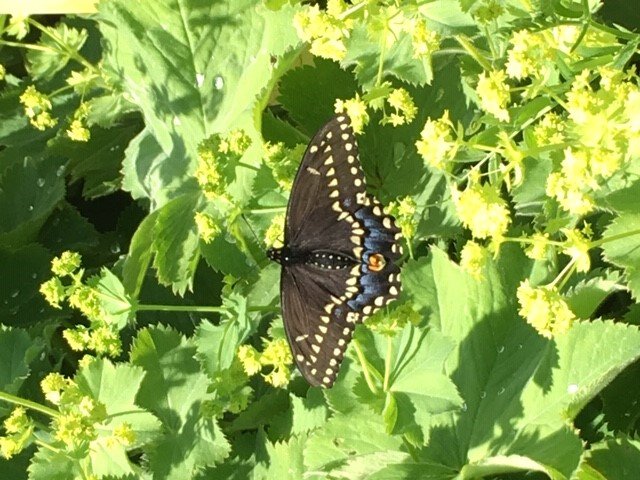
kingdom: Animalia
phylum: Arthropoda
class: Insecta
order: Lepidoptera
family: Papilionidae
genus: Papilio
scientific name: Papilio polyxenes
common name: Black Swallowtail
